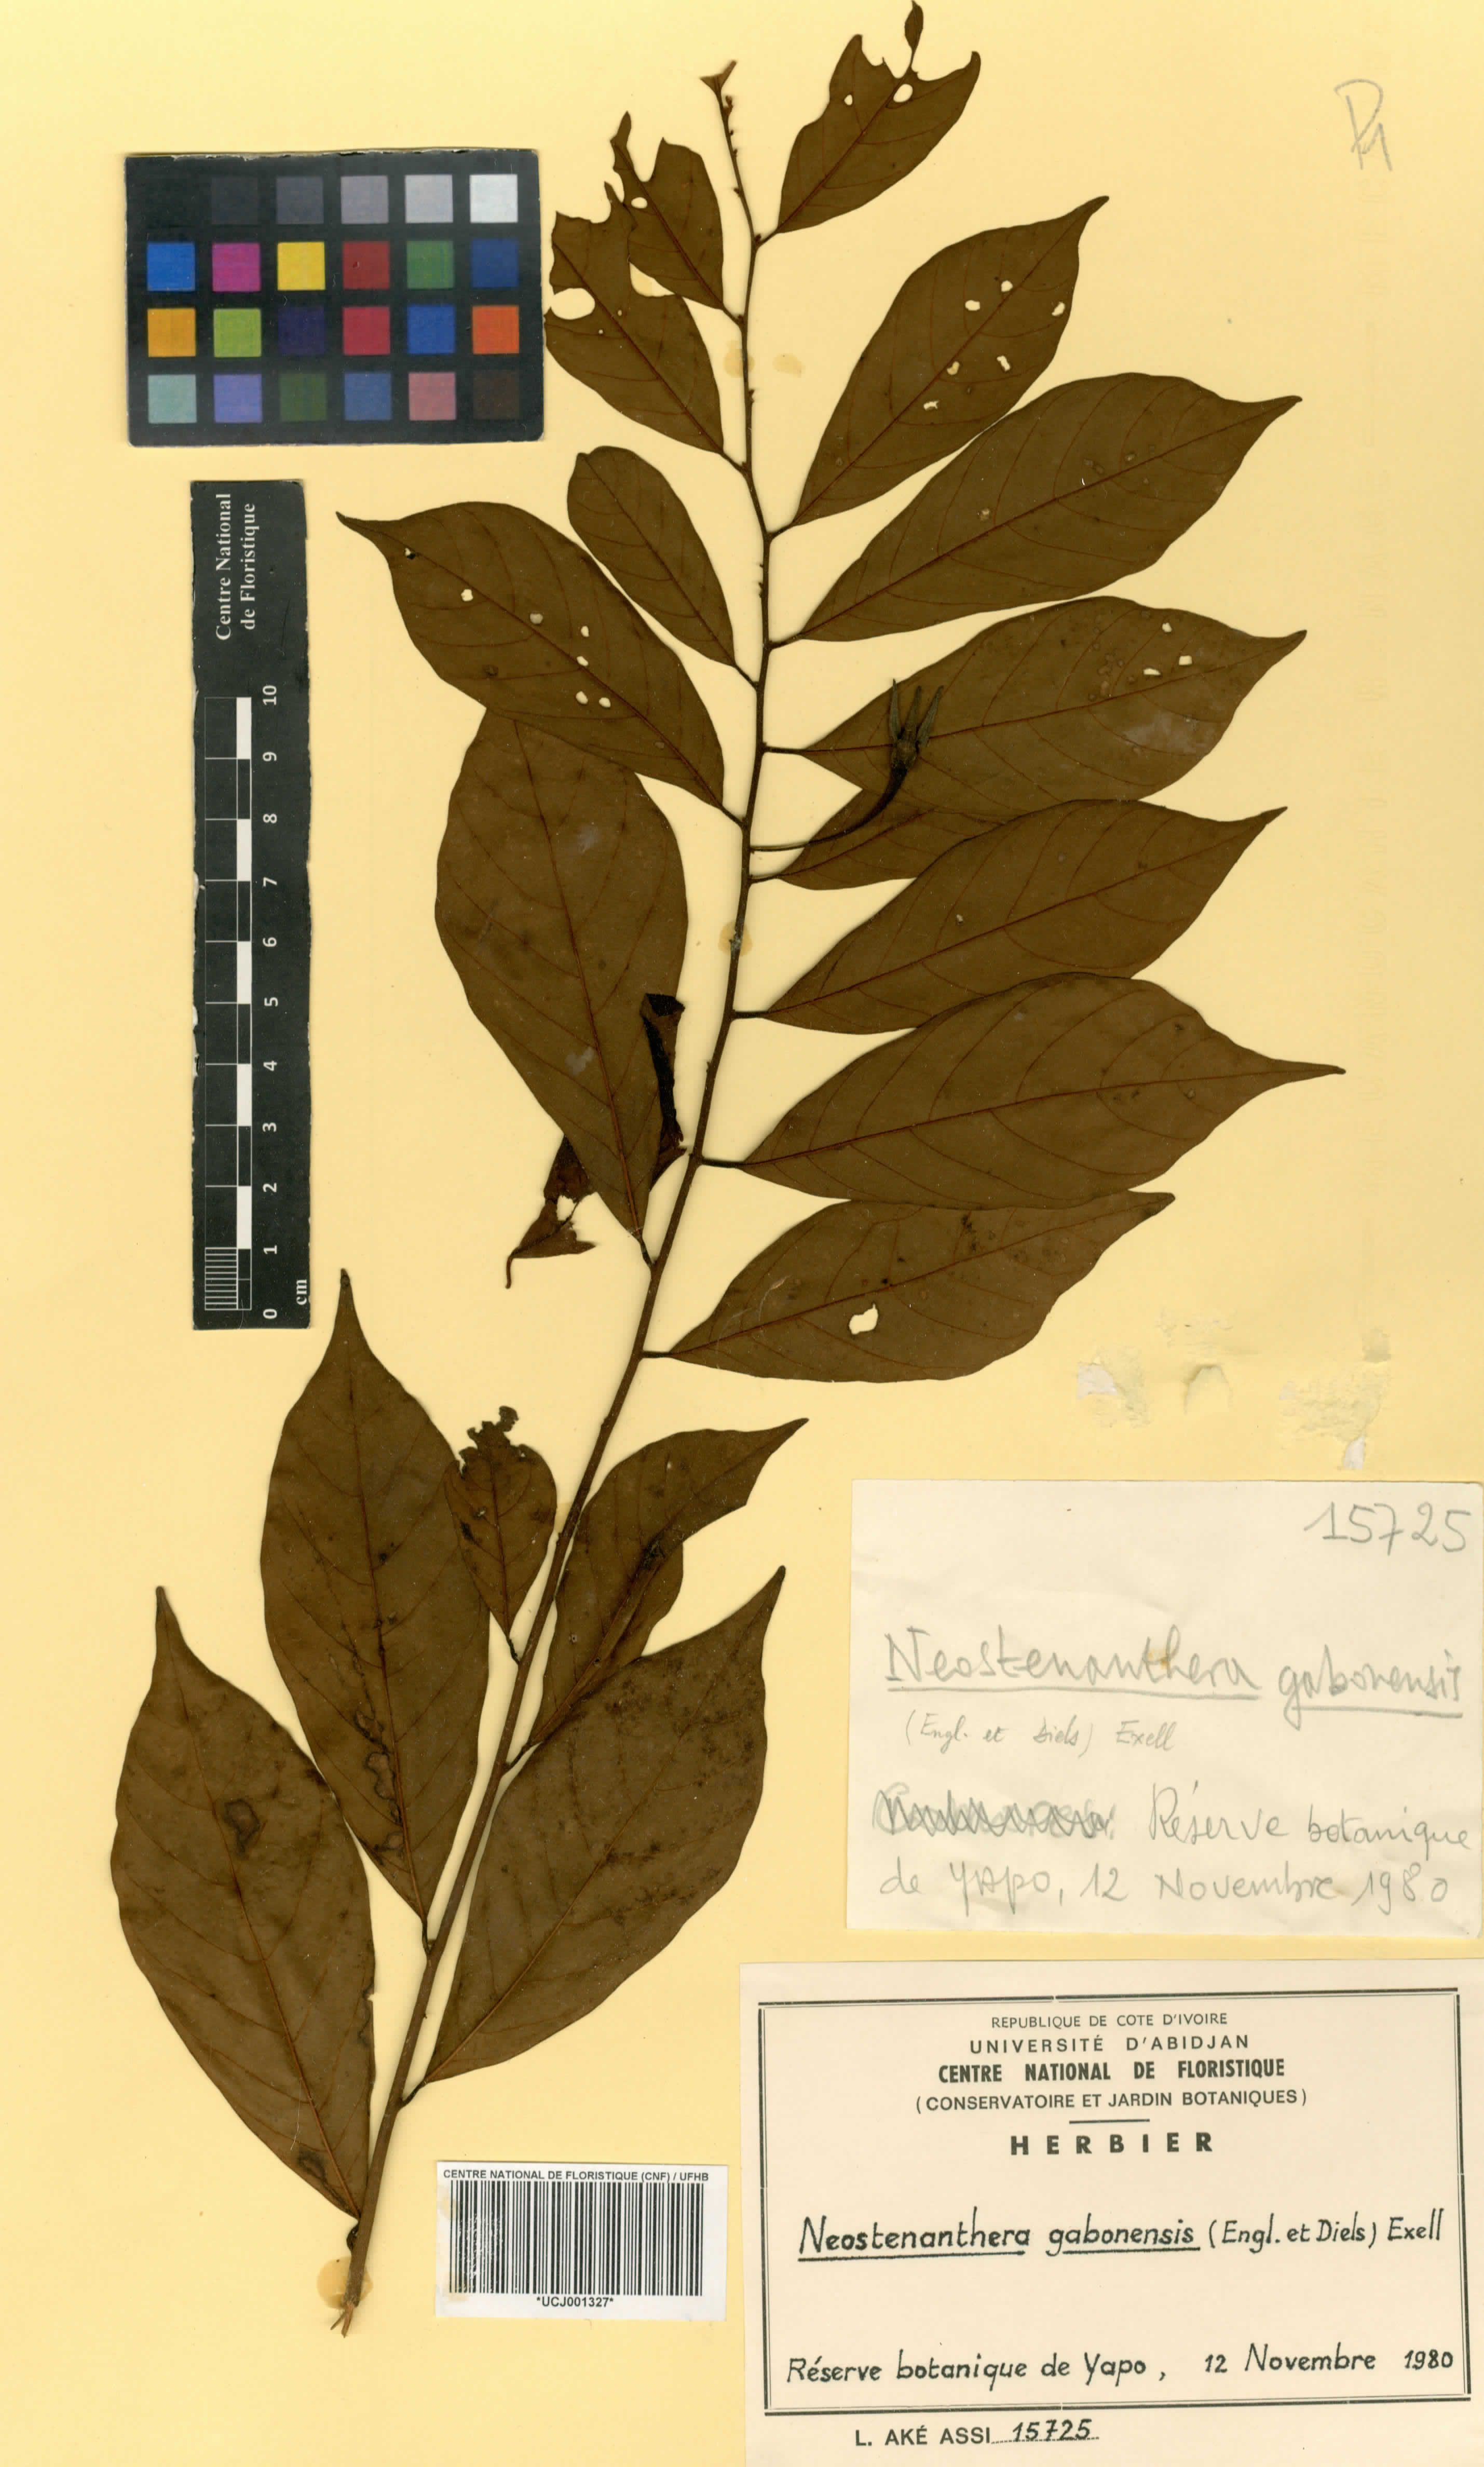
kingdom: Plantae
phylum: Tracheophyta
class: Magnoliopsida
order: Magnoliales
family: Annonaceae
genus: Neostenanthera
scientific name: Neostenanthera gabonensis
